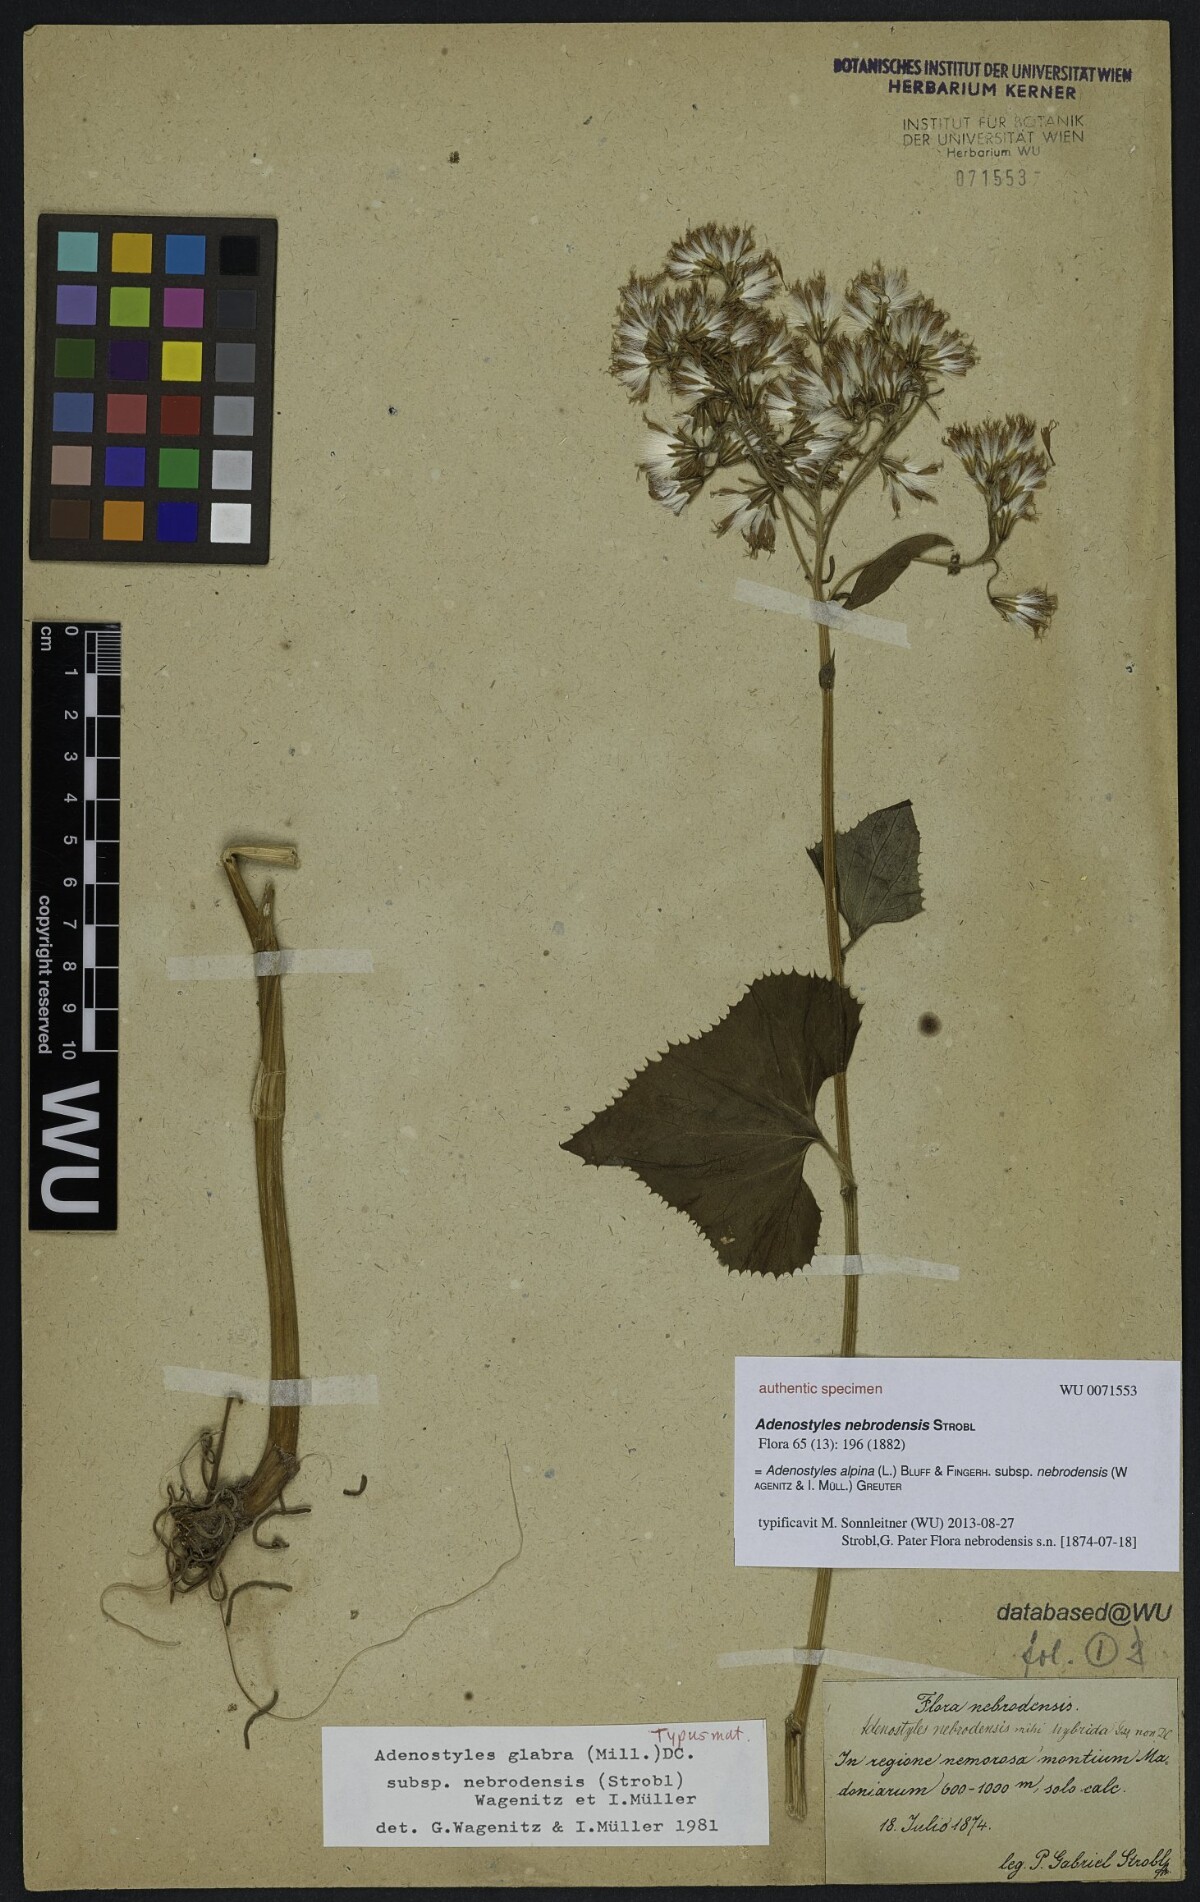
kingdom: Plantae
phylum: Tracheophyta
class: Magnoliopsida
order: Asterales
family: Asteraceae
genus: Adenostyles
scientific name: Adenostyles alpina
